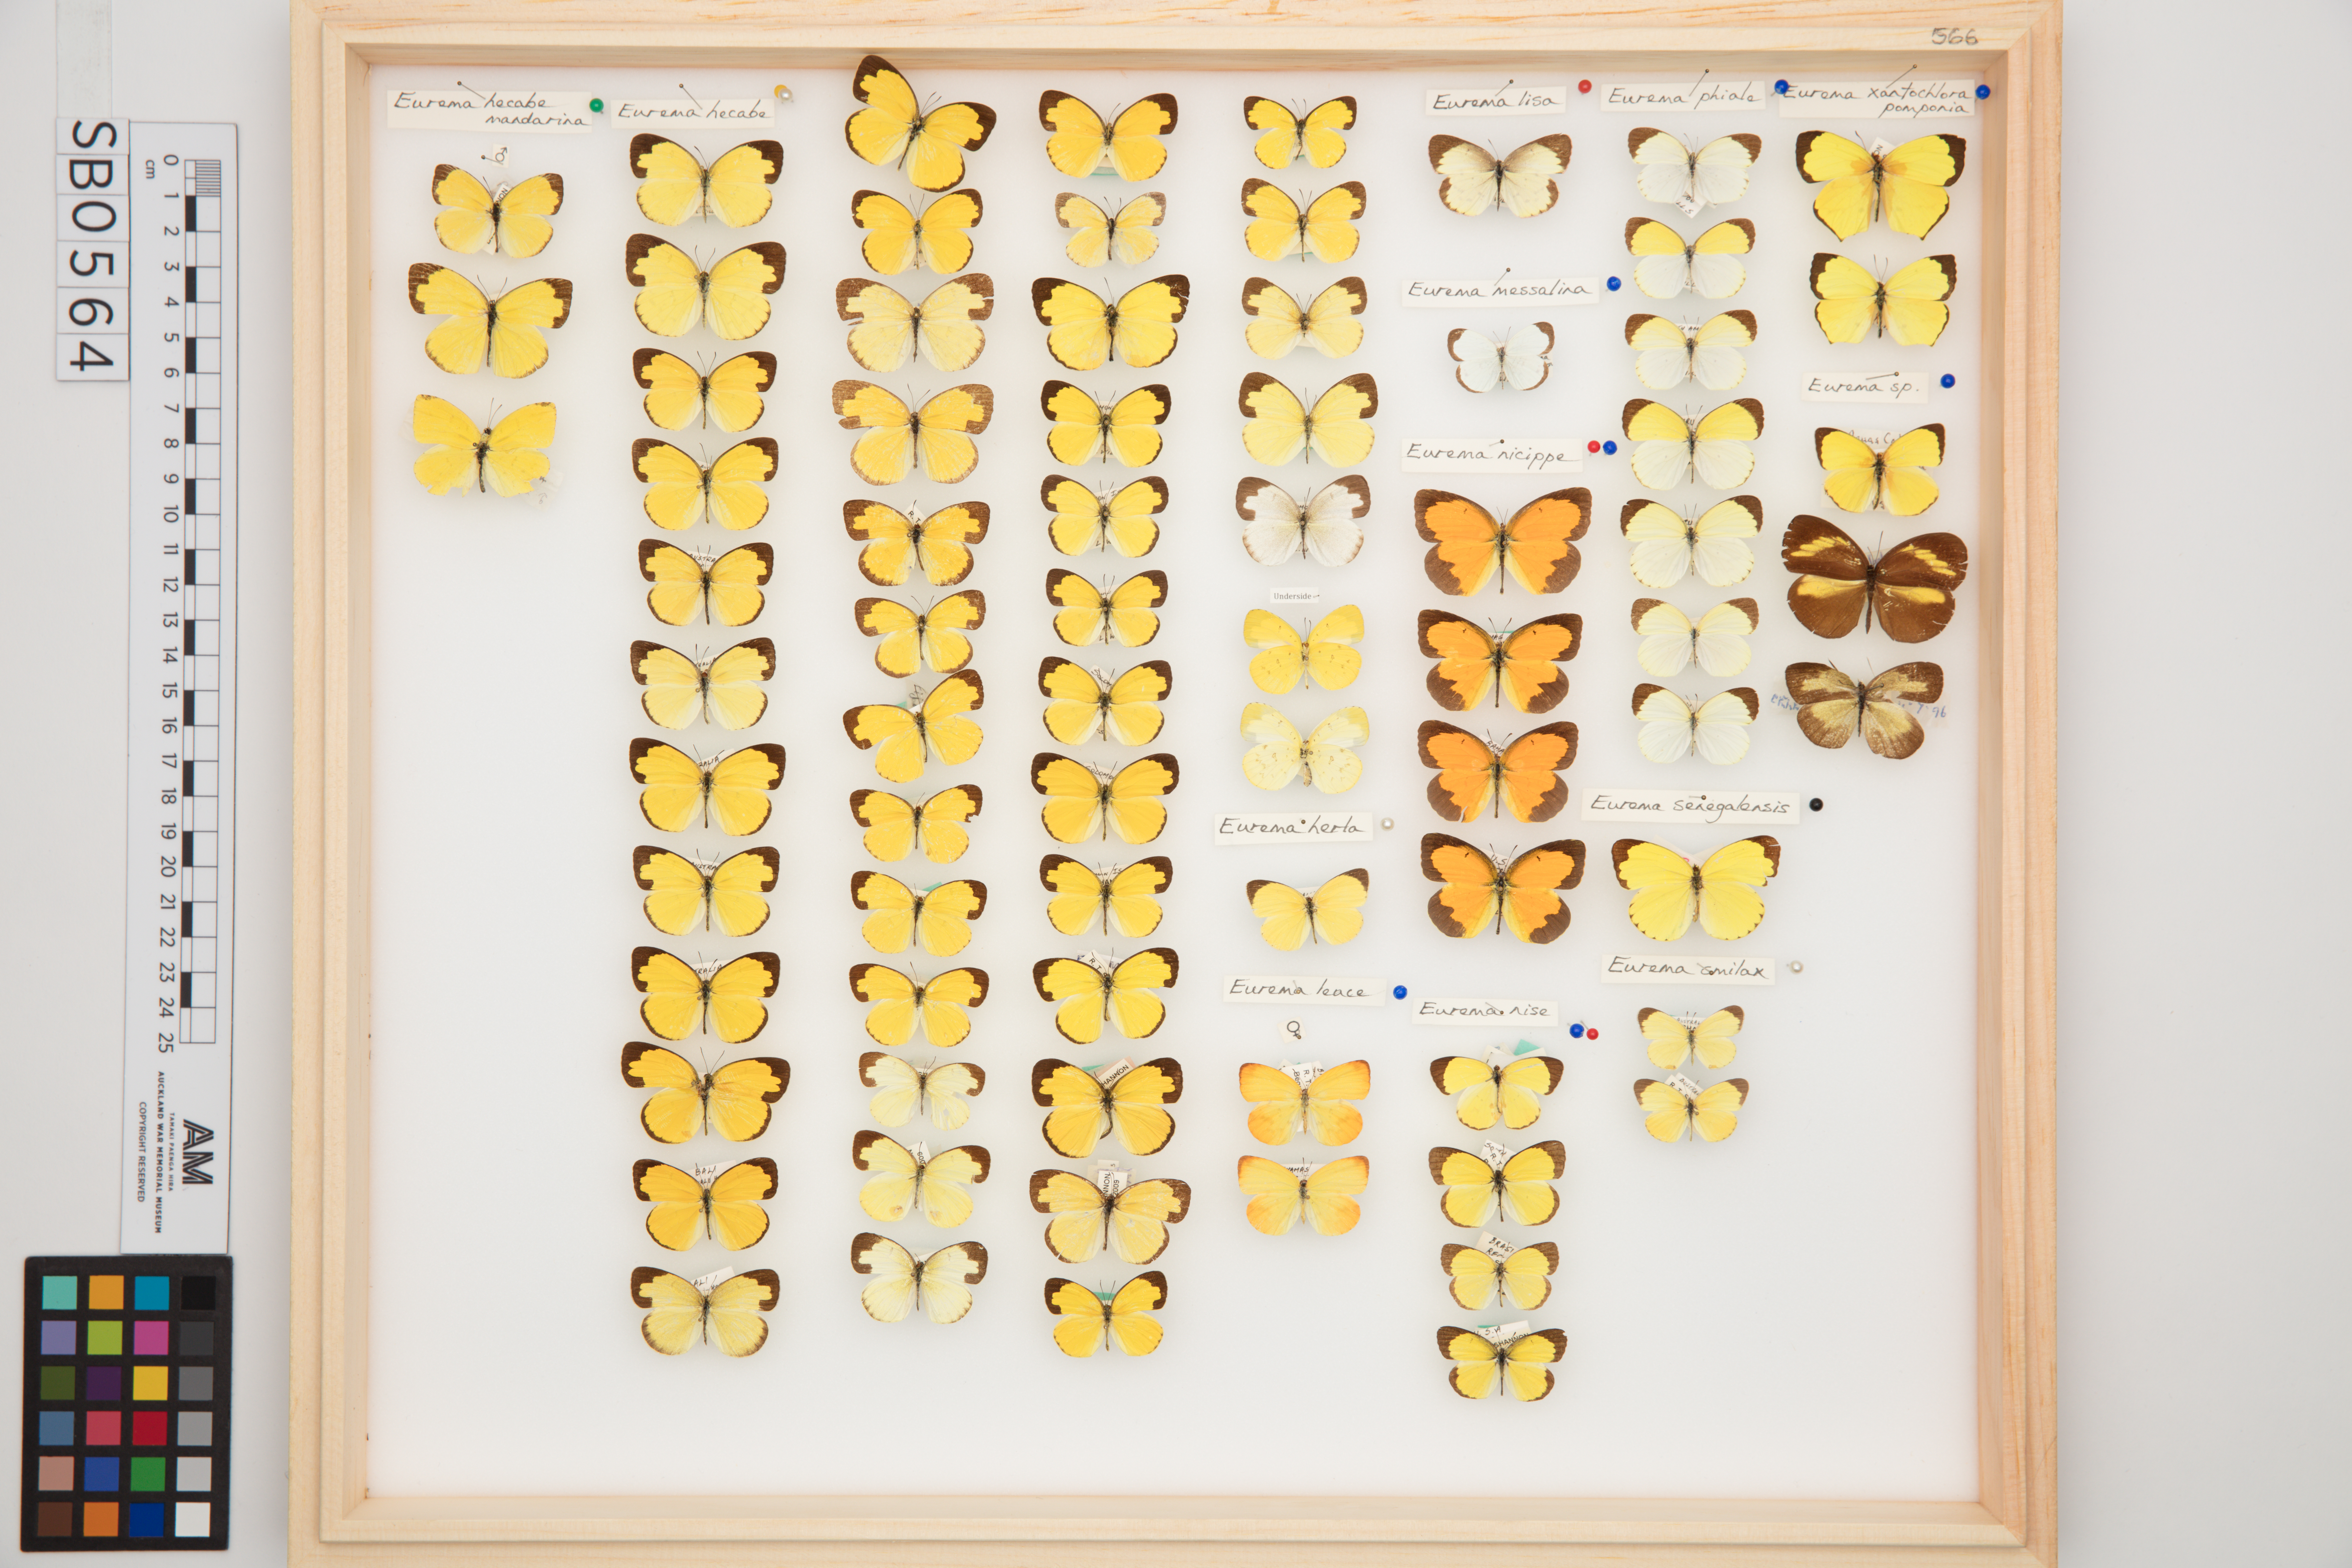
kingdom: Animalia
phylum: Arthropoda
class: Insecta
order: Lepidoptera
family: Pieridae
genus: Eurema
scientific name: Eurema
